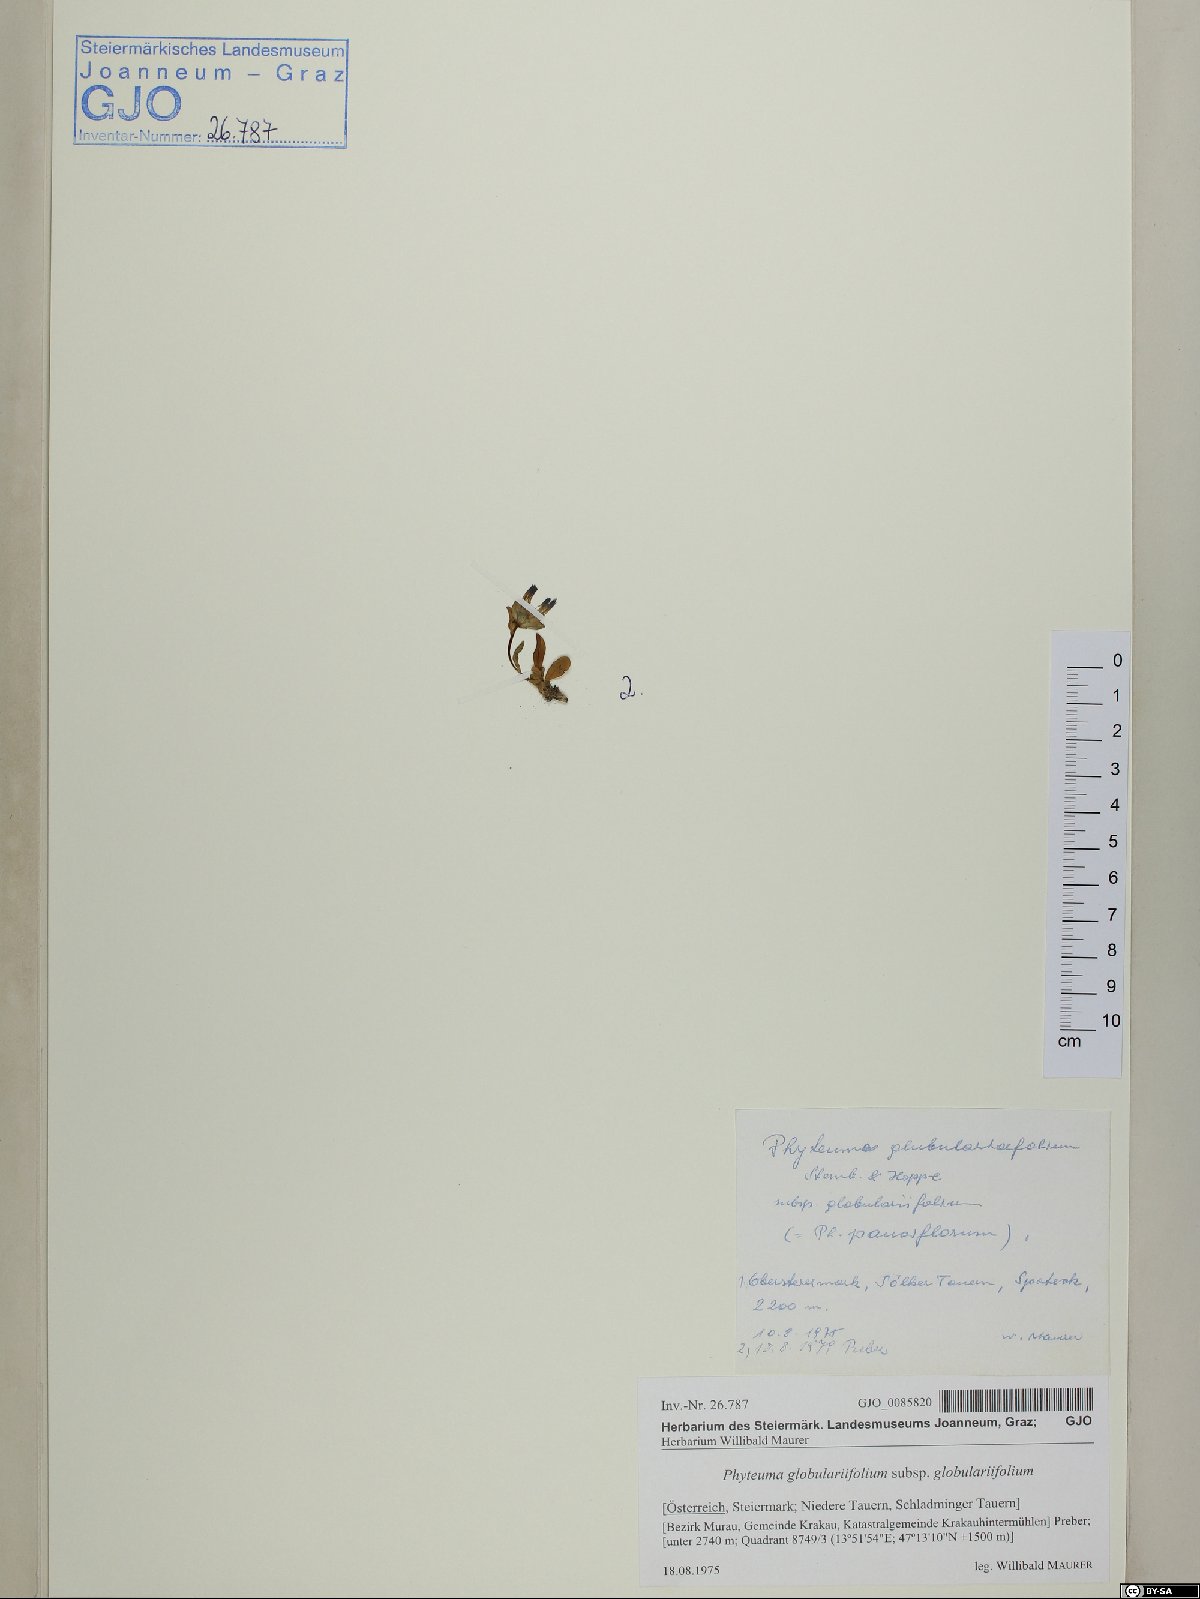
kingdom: Plantae
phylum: Tracheophyta
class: Magnoliopsida
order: Asterales
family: Campanulaceae
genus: Phyteuma
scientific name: Phyteuma globulariifolium
